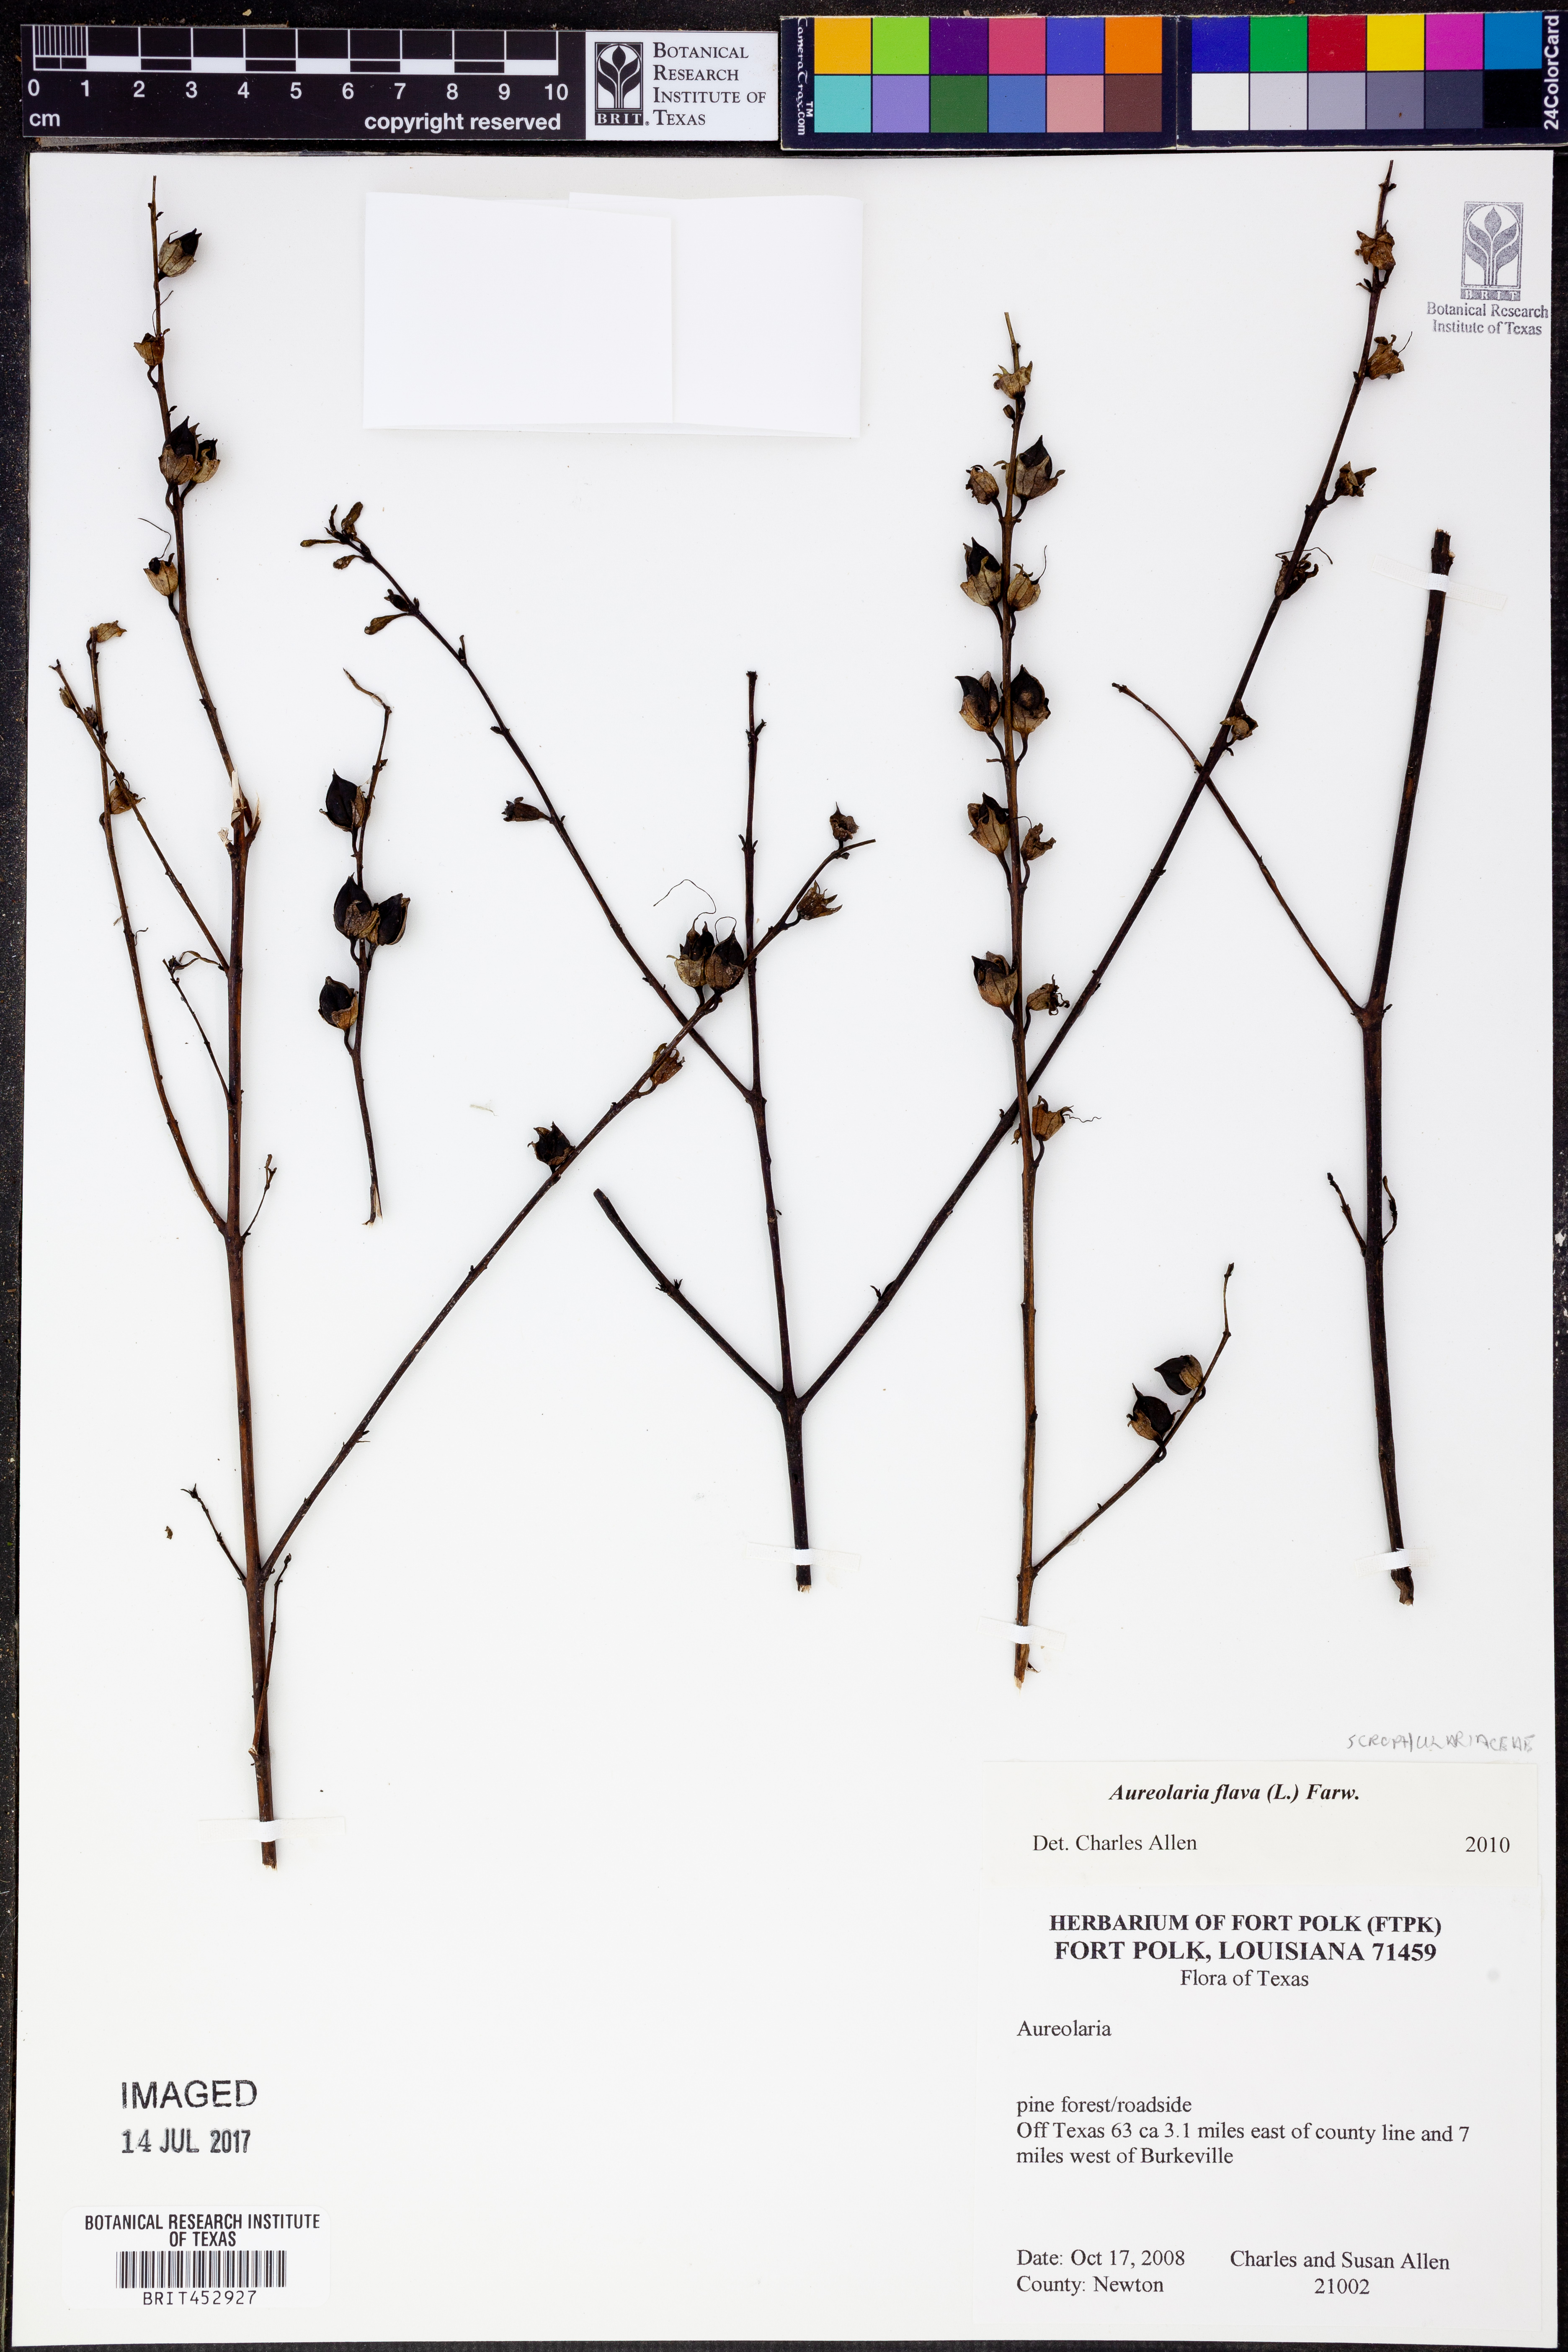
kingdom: Plantae
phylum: Tracheophyta
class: Magnoliopsida
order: Lamiales
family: Orobanchaceae
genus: Aureolaria
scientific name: Aureolaria flava
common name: Smooth false foxglove
